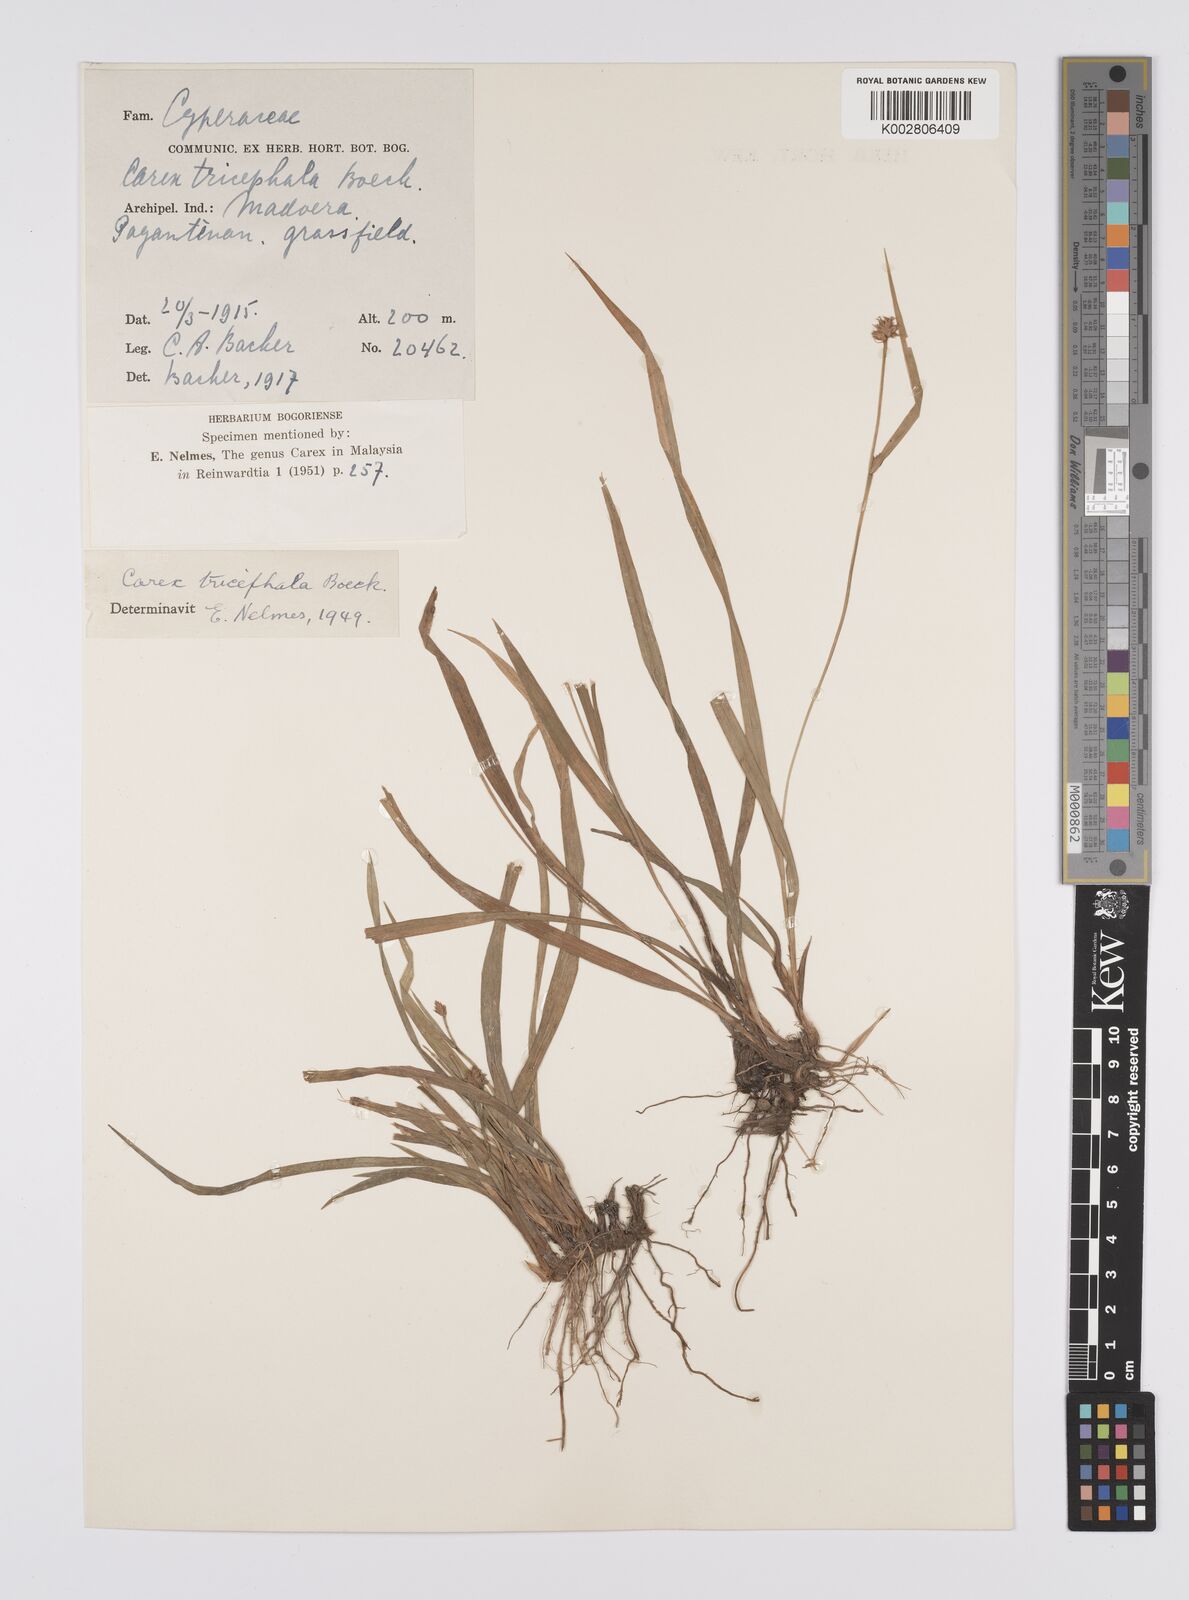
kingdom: Plantae
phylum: Tracheophyta
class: Liliopsida
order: Poales
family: Cyperaceae
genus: Carex
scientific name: Carex tricephala
